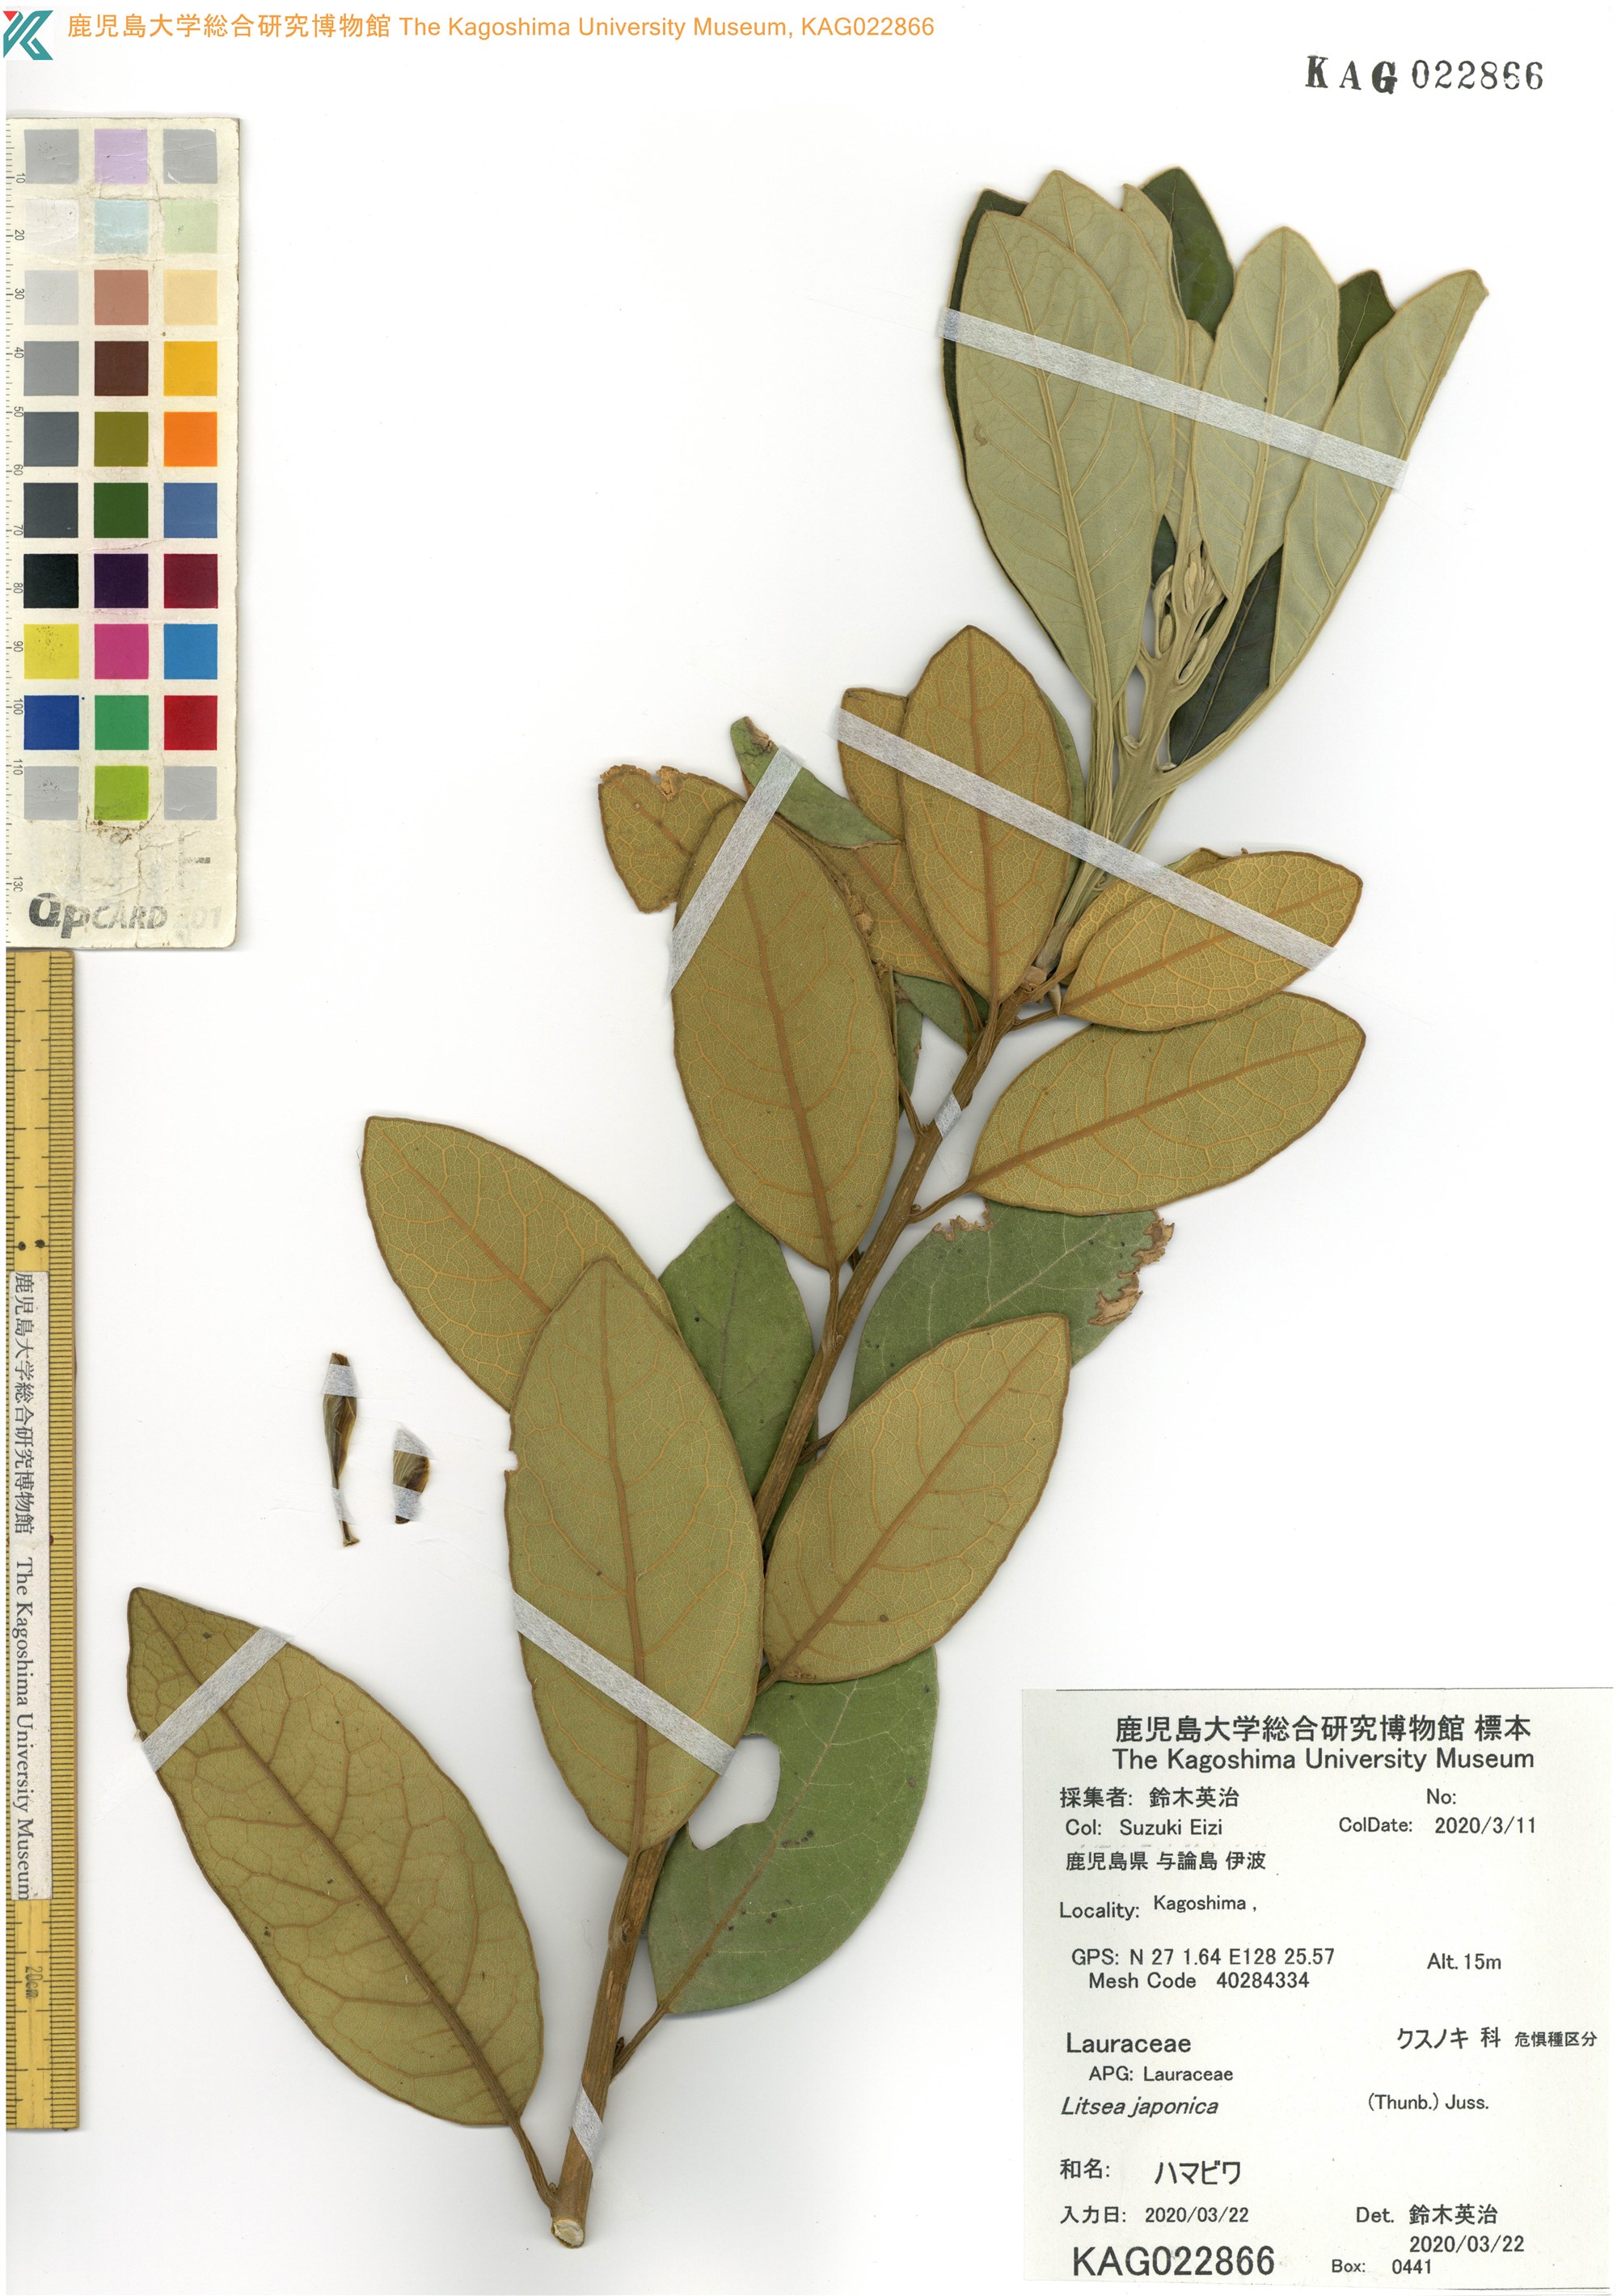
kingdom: Plantae
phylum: Tracheophyta
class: Magnoliopsida
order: Laurales
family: Lauraceae
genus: Litsea
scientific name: Litsea japonica
